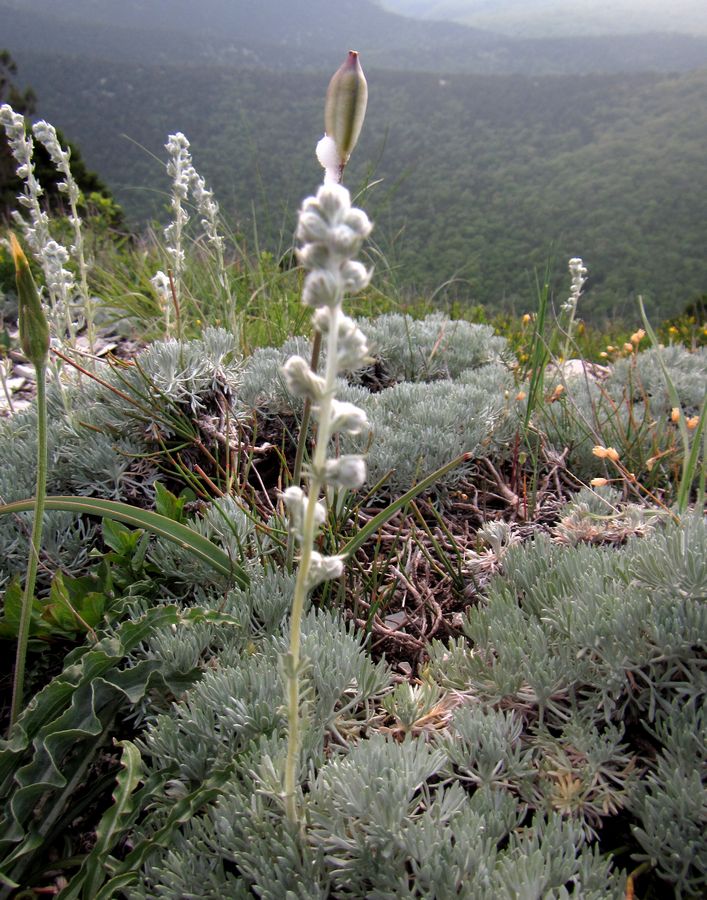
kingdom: Plantae
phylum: Tracheophyta
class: Magnoliopsida
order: Asterales
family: Asteraceae
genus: Artemisia
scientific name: Artemisia alpina
